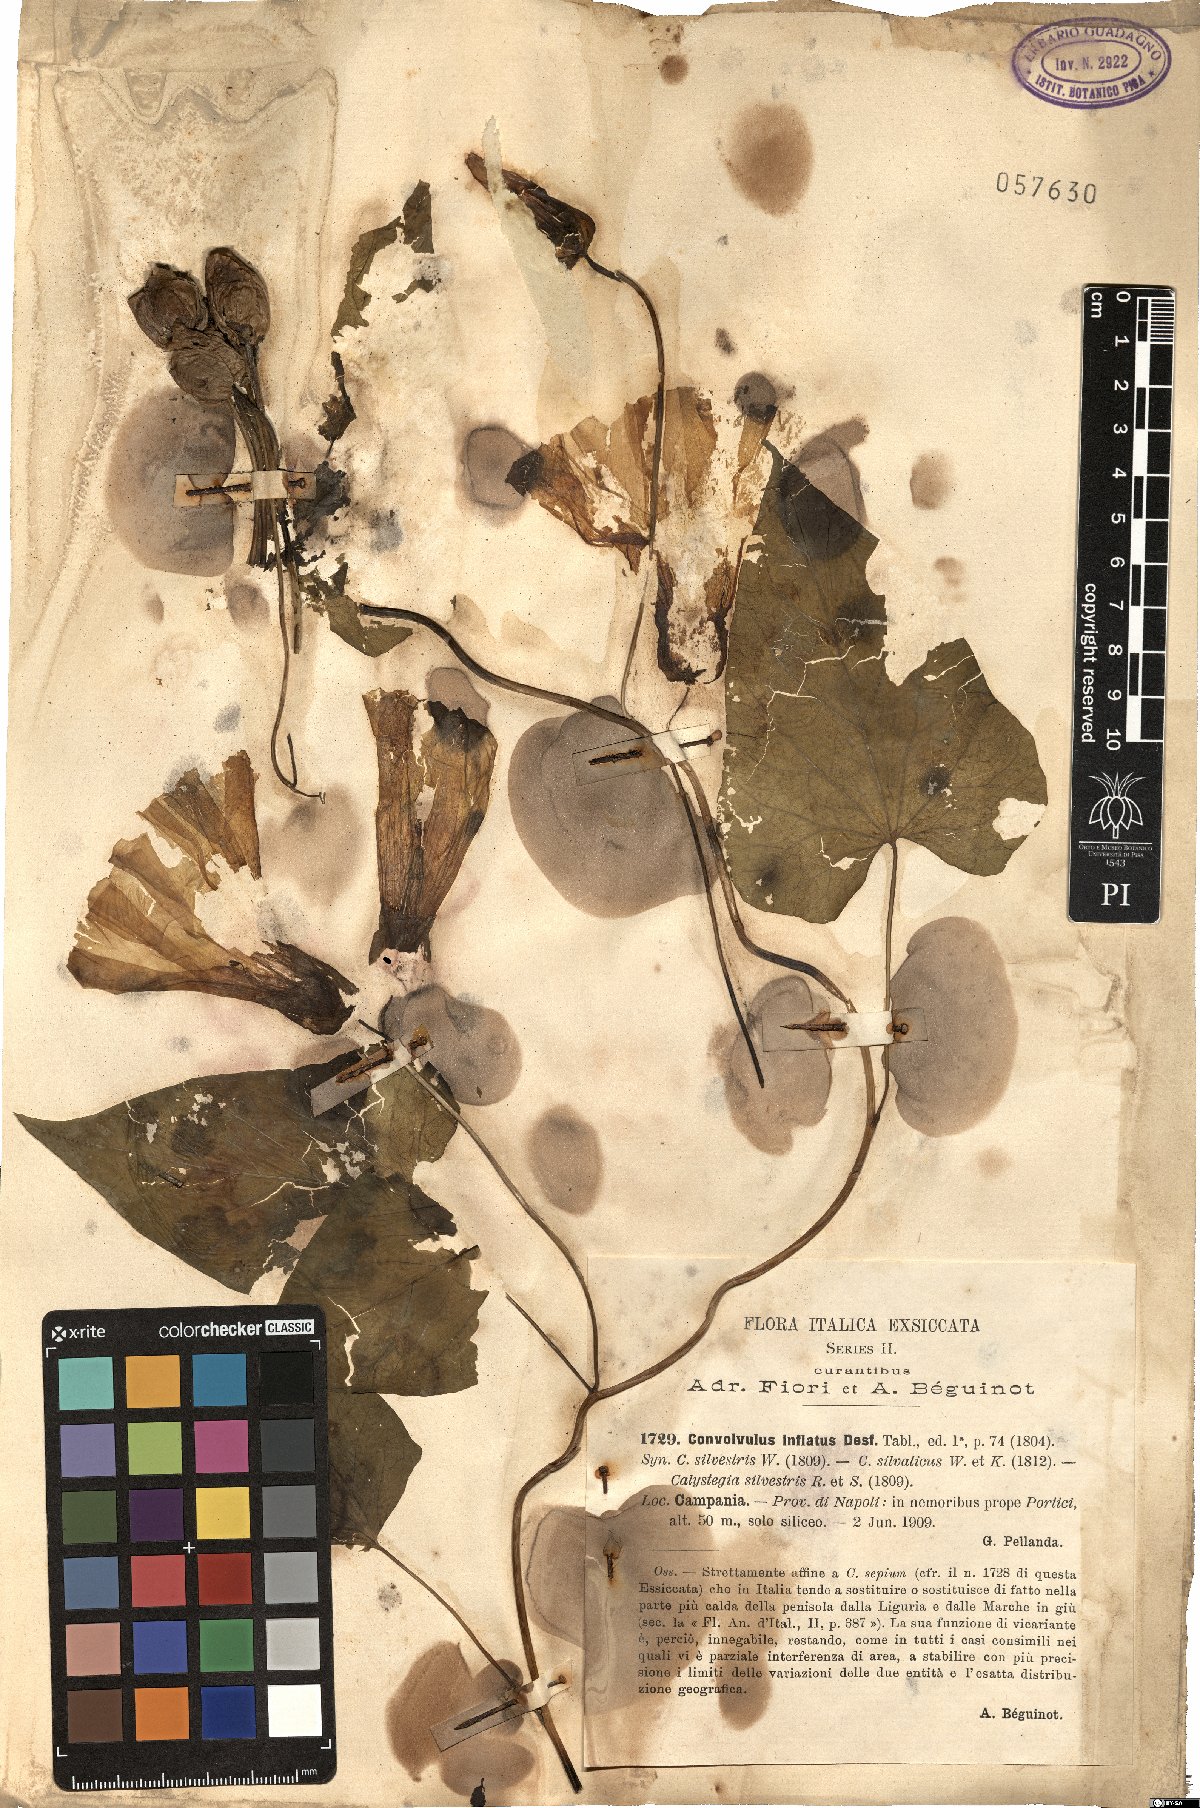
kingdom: Plantae
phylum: Tracheophyta
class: Magnoliopsida
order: Solanales
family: Convolvulaceae
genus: Calystegia
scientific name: Calystegia silvatica
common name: Large bindweed
